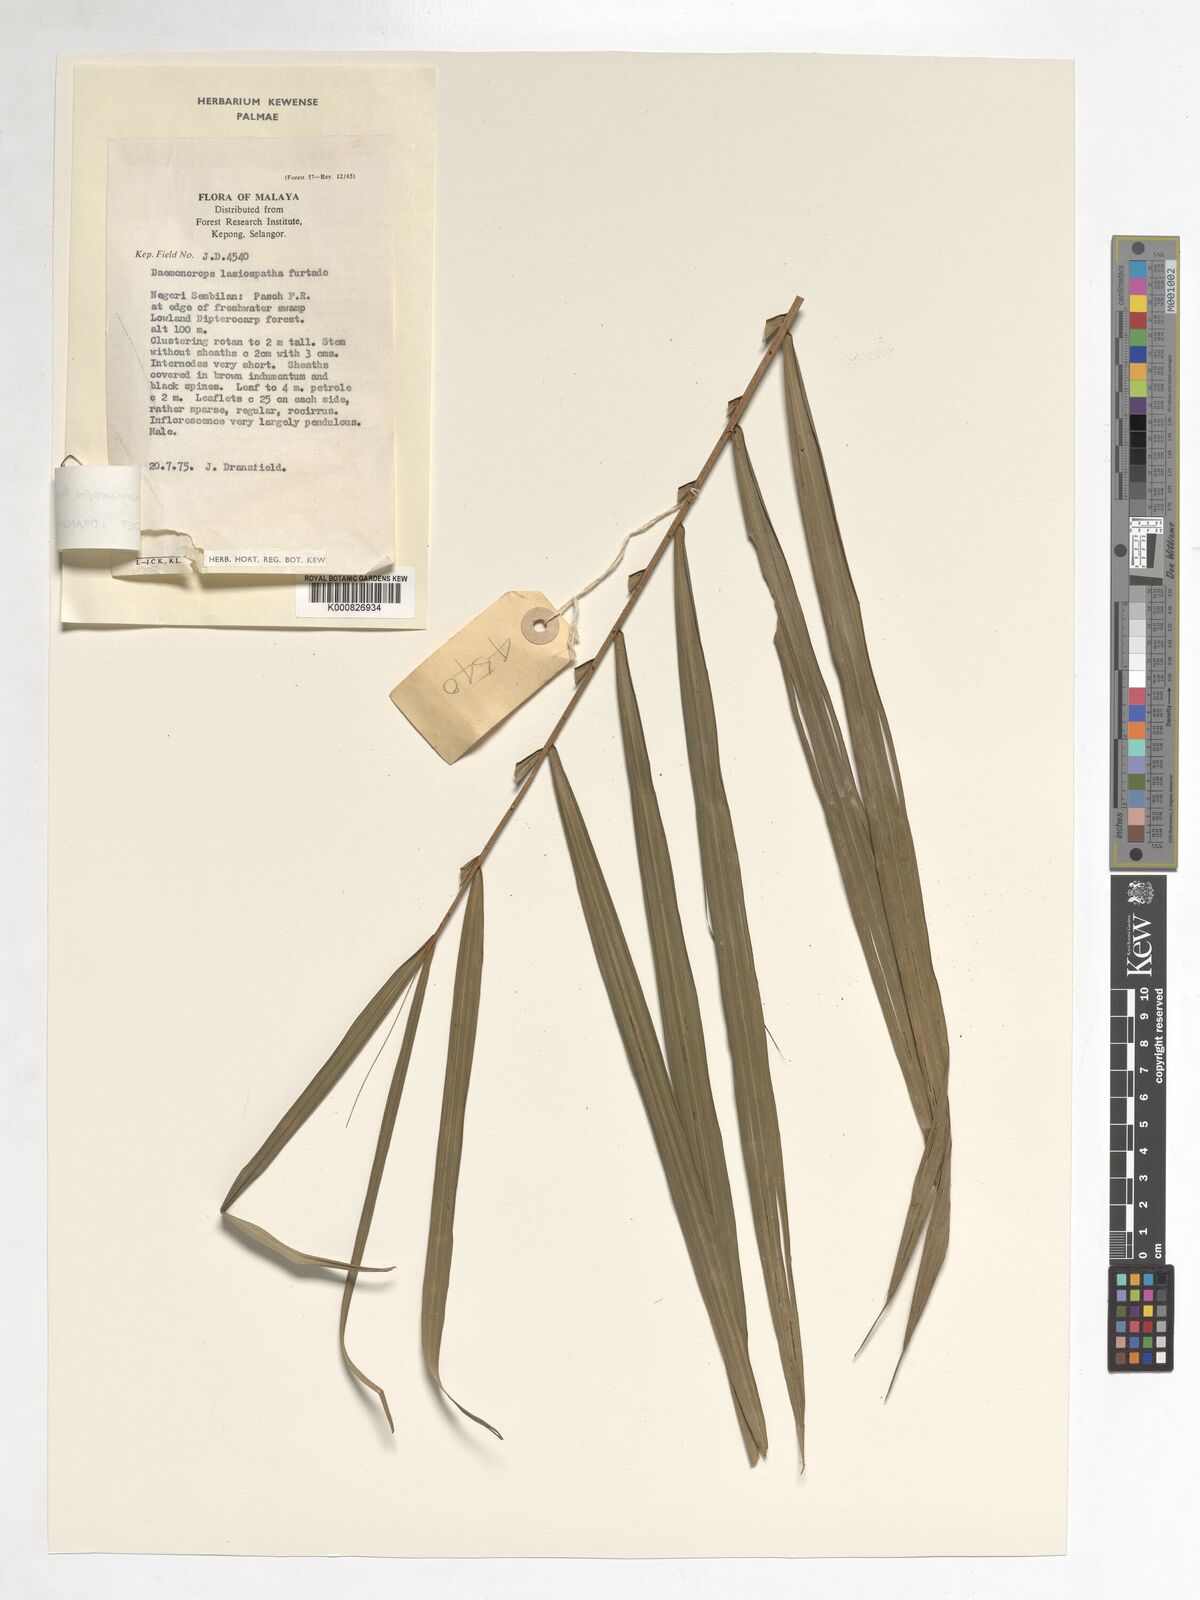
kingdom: Plantae
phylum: Tracheophyta
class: Liliopsida
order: Arecales
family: Arecaceae
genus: Calamus
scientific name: Calamus kunstleri
